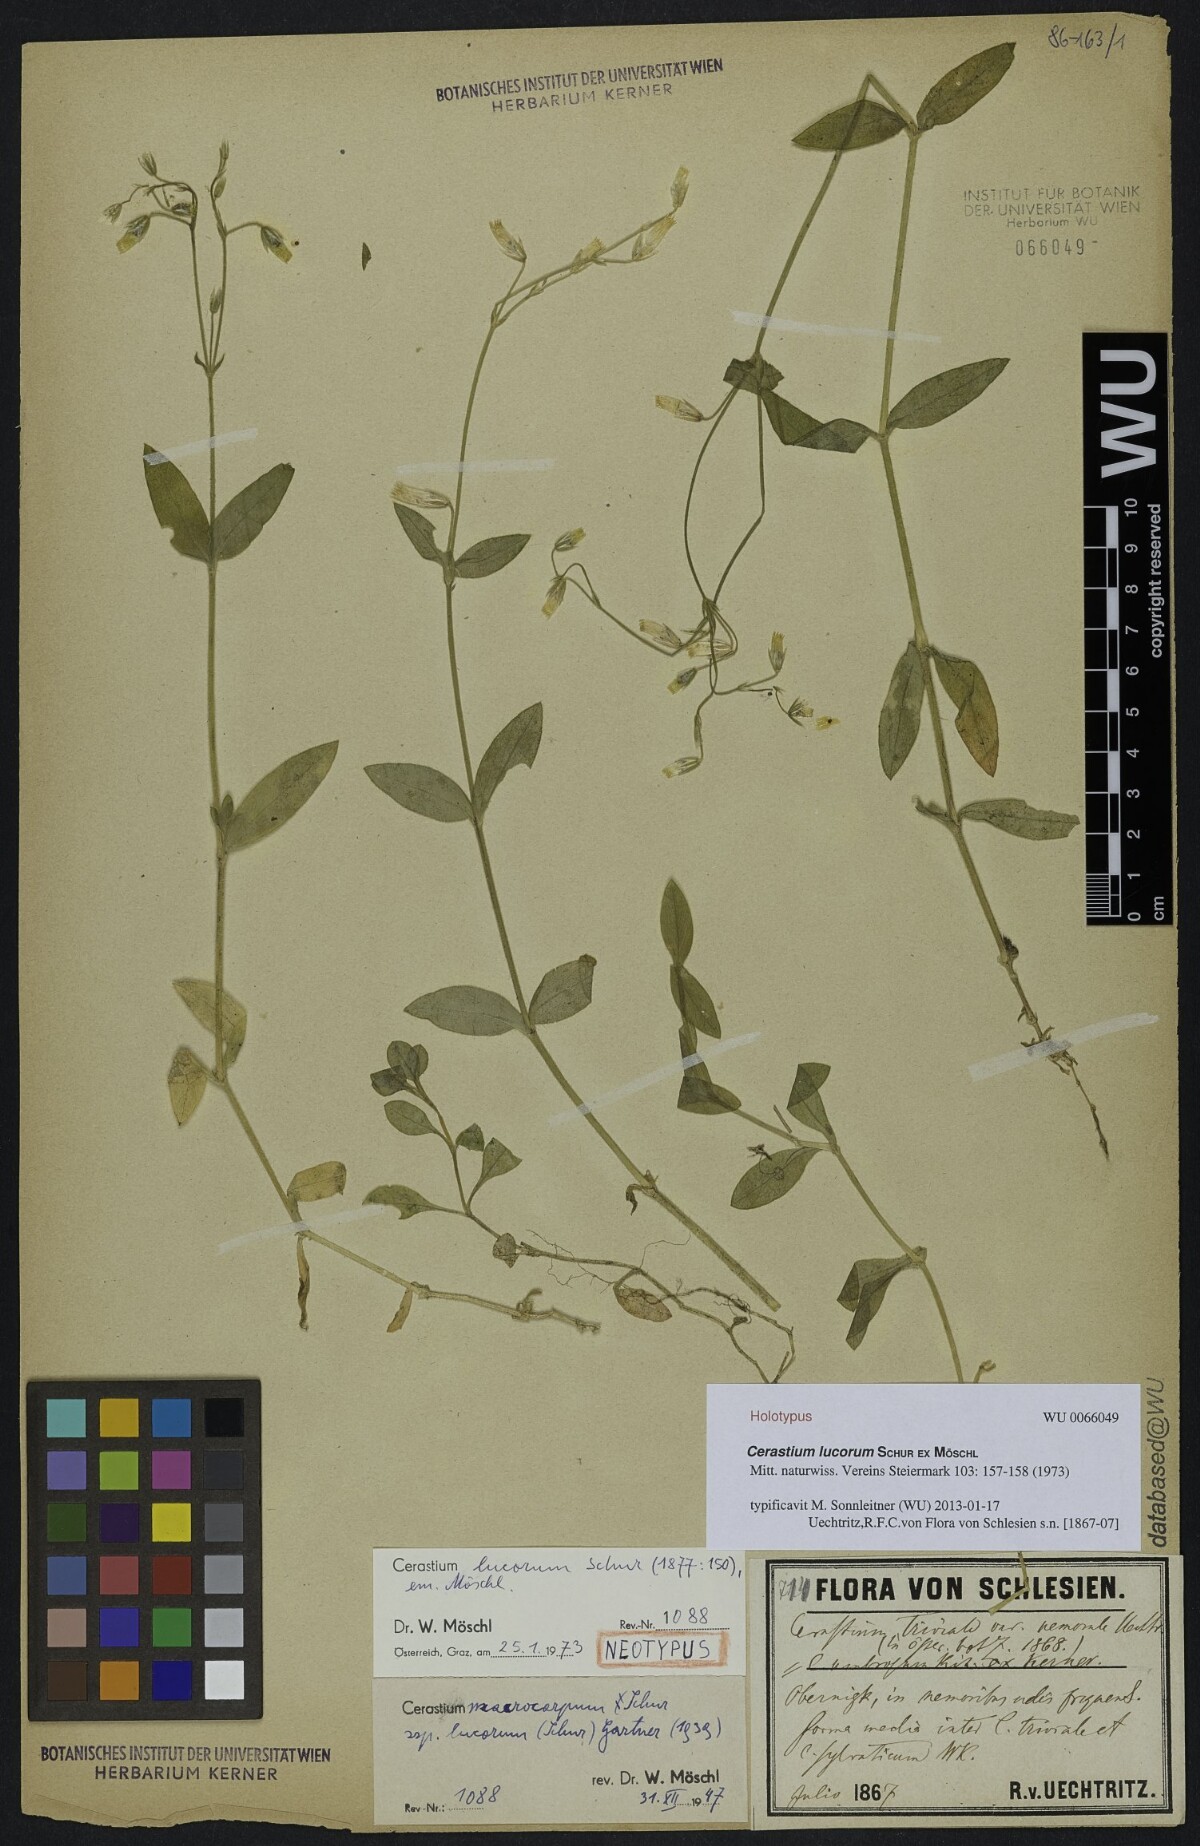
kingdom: Plantae
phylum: Tracheophyta
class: Magnoliopsida
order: Caryophyllales
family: Caryophyllaceae
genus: Cerastium
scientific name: Cerastium lucorum
